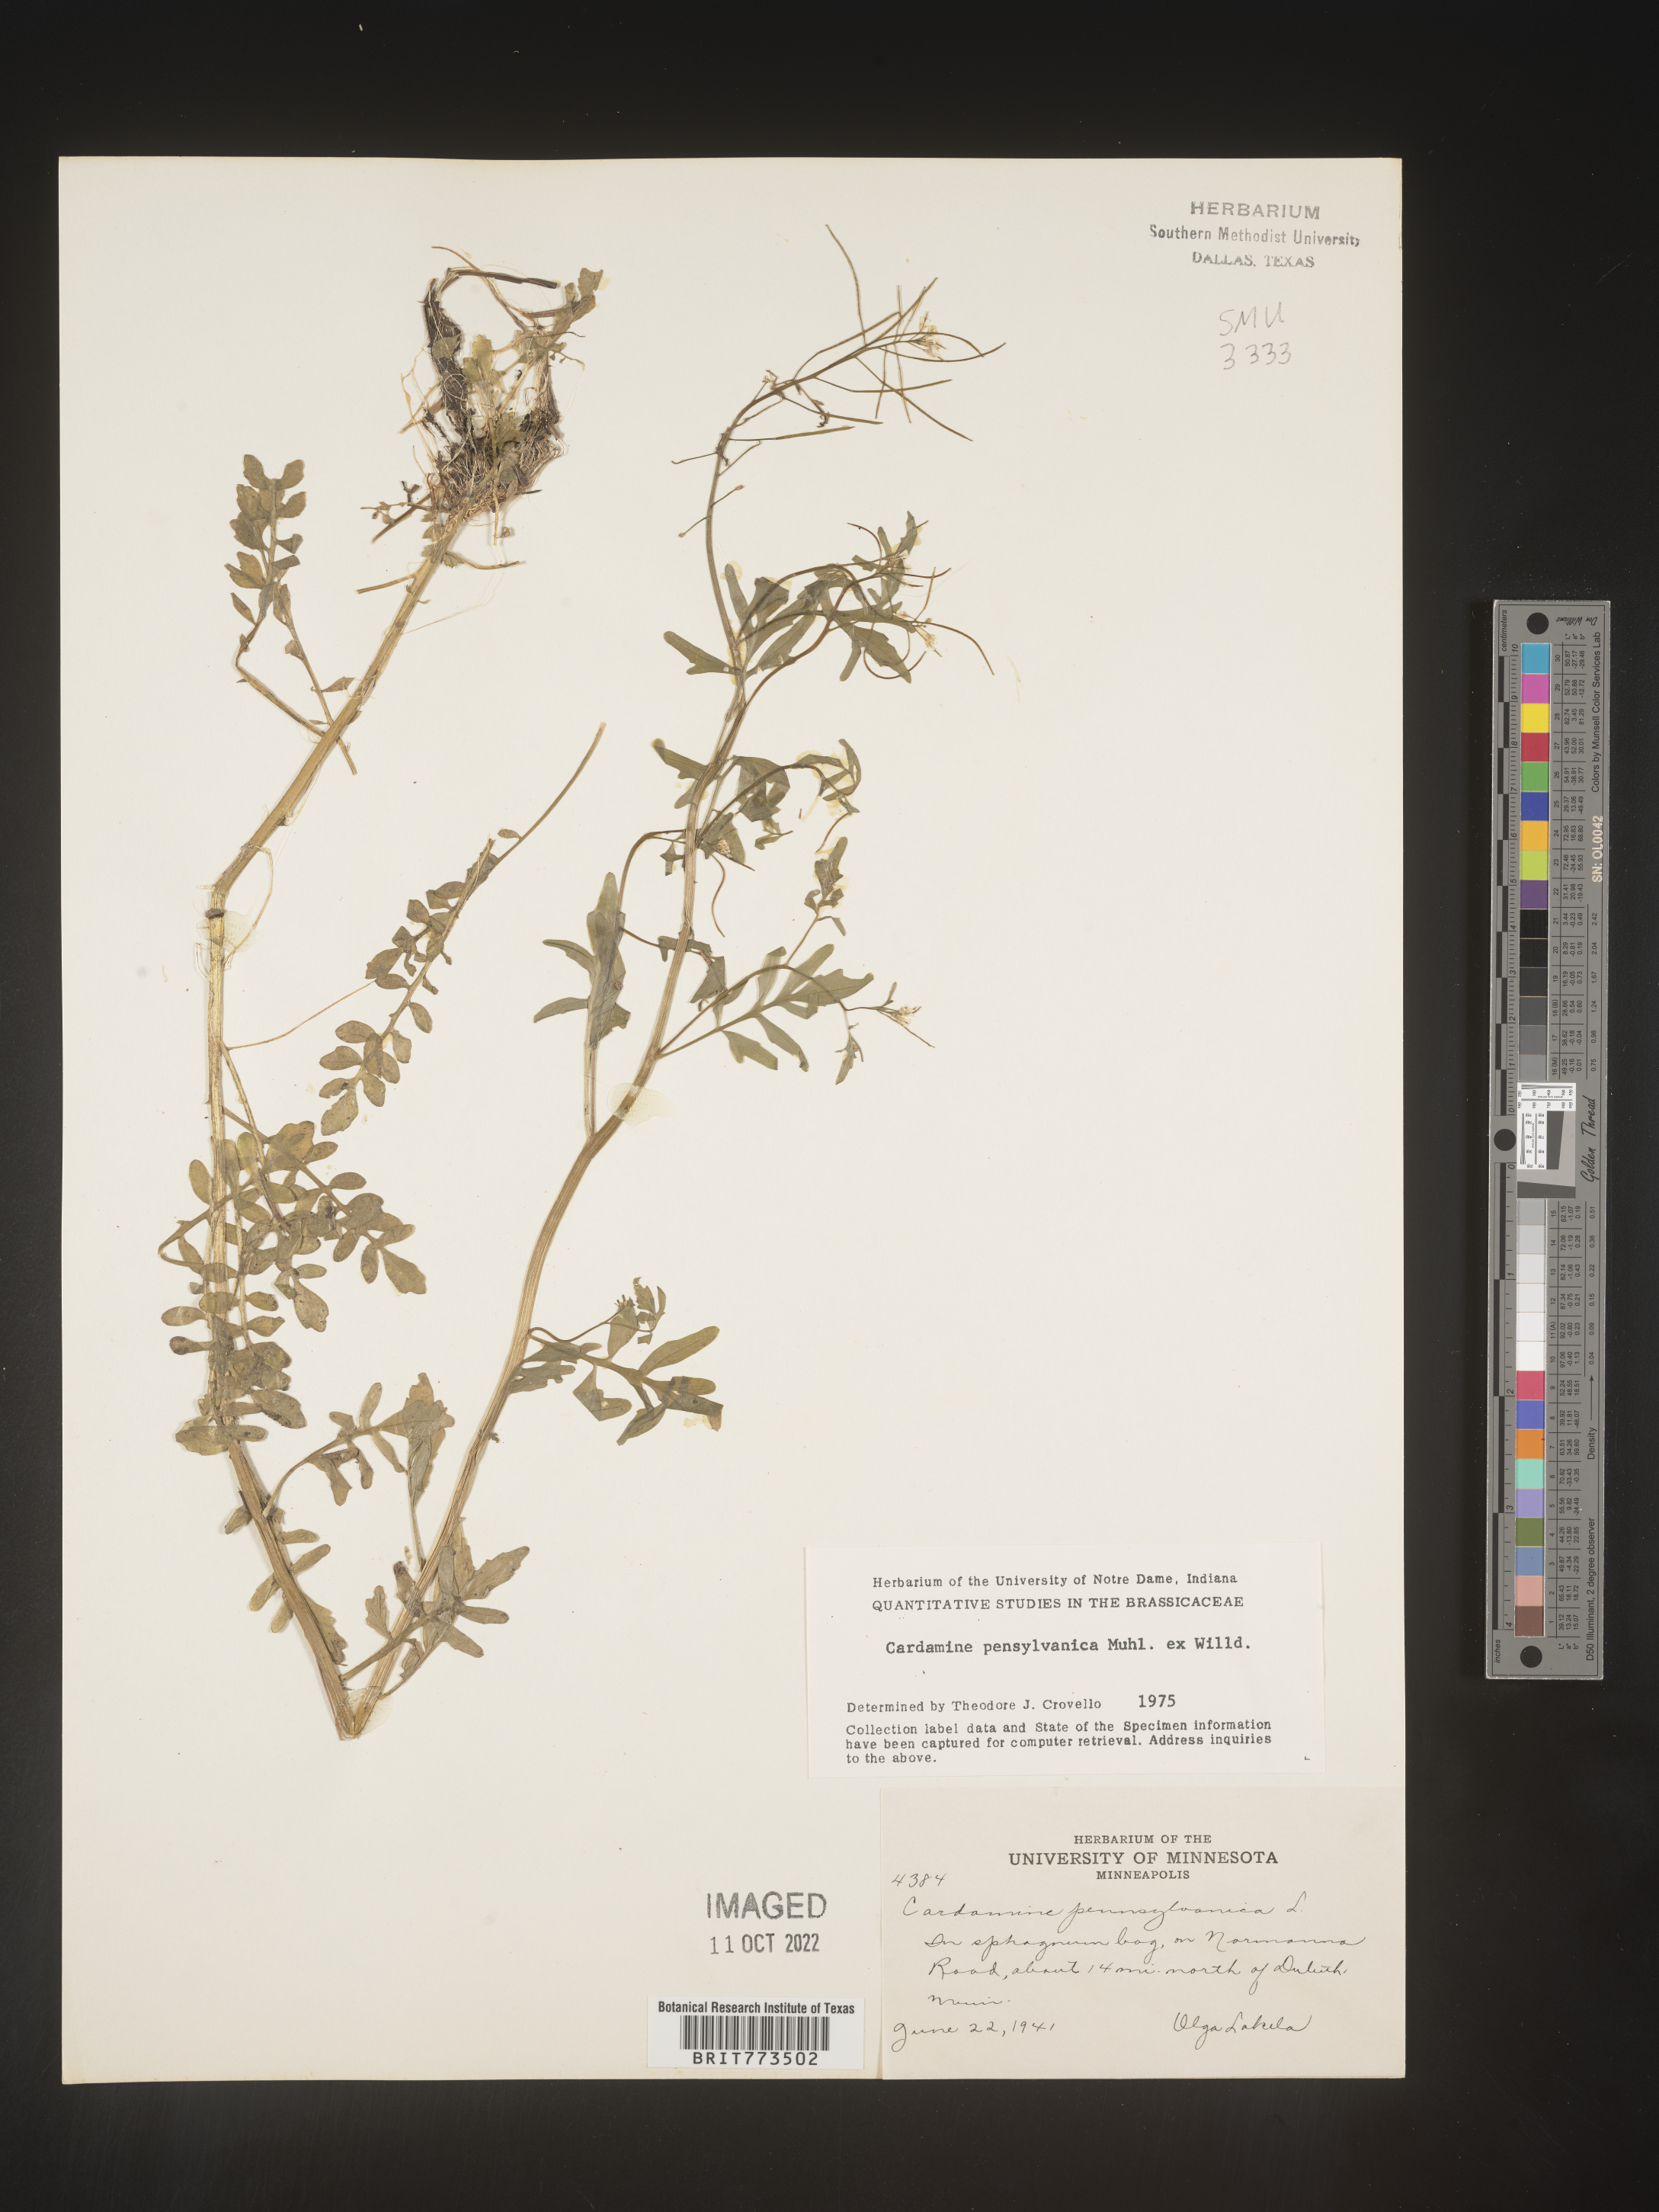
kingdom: Plantae
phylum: Tracheophyta
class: Magnoliopsida
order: Brassicales
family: Brassicaceae
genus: Cardamine
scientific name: Cardamine pensylvanica
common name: Pennsylvania bittercress
